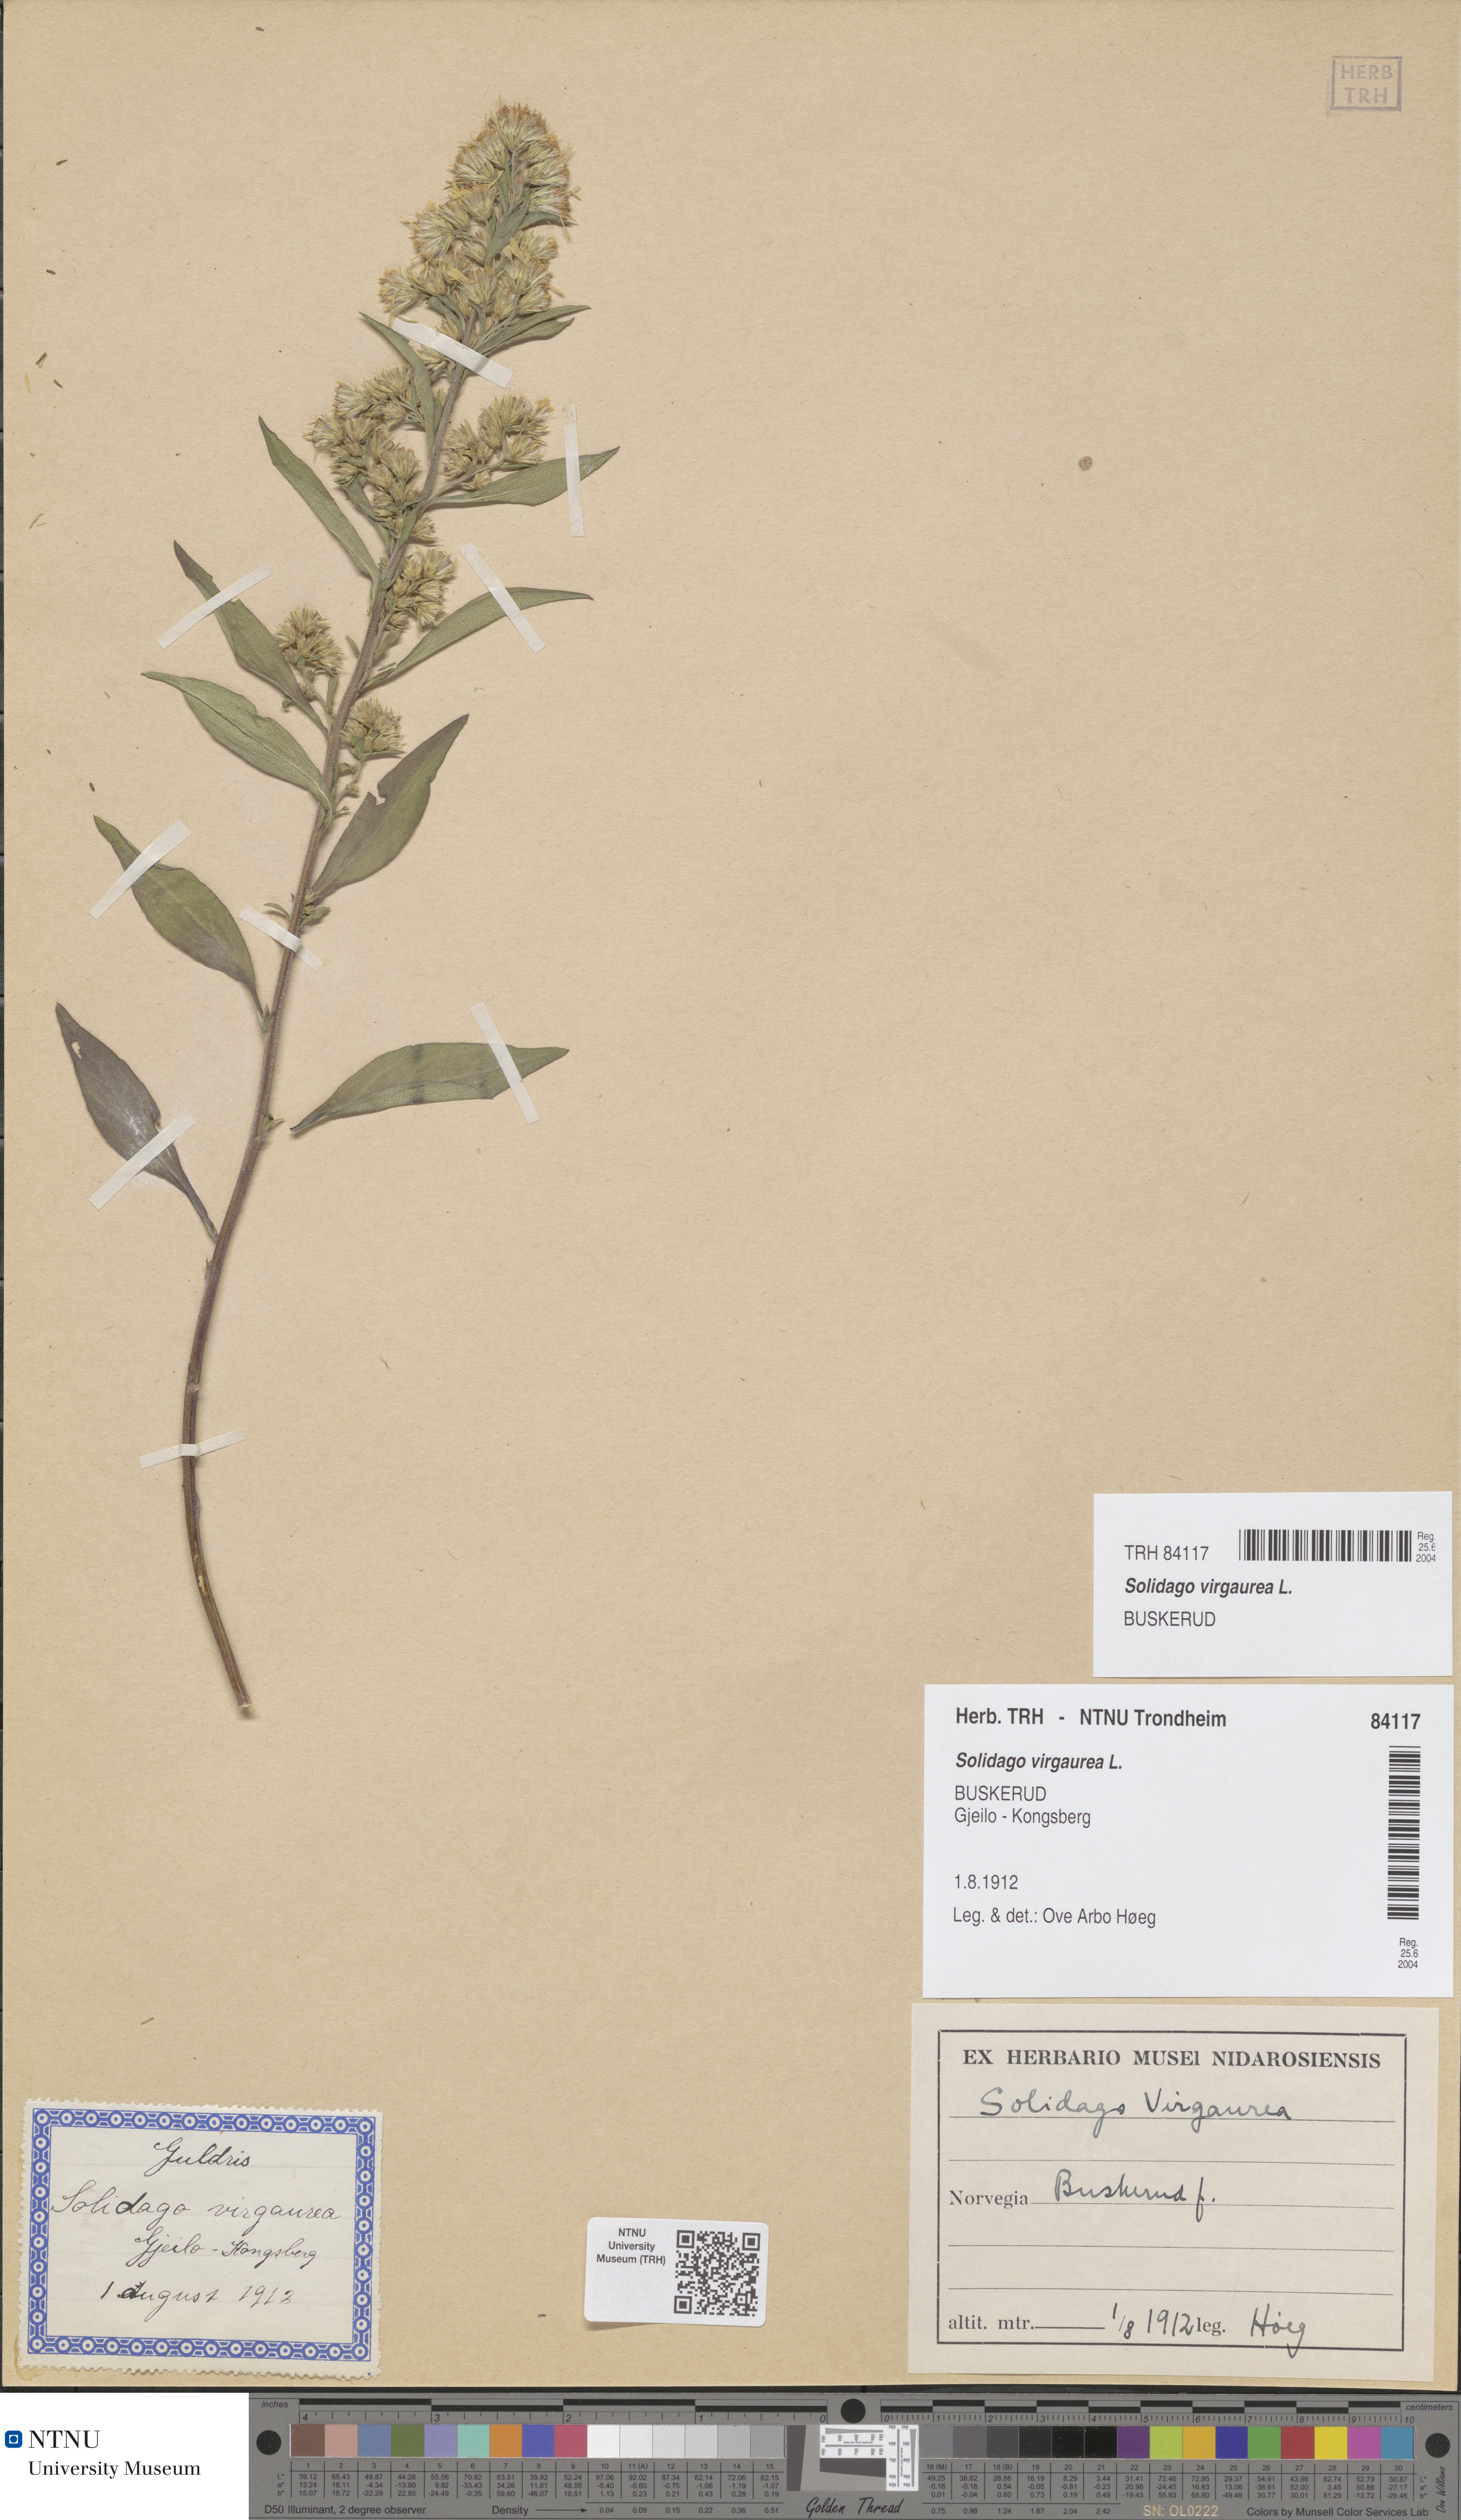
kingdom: Plantae
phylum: Tracheophyta
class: Magnoliopsida
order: Asterales
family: Asteraceae
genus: Solidago
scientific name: Solidago virgaurea
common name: Goldenrod
